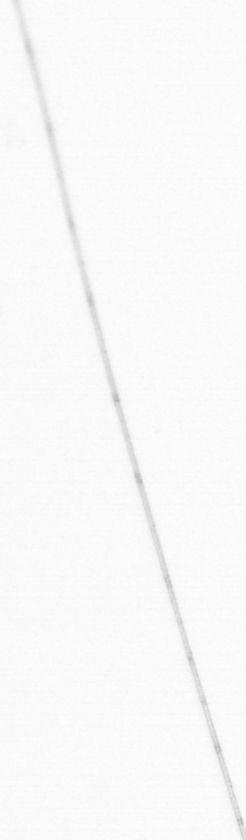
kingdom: Animalia
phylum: Chaetognatha
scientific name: Chaetognatha
